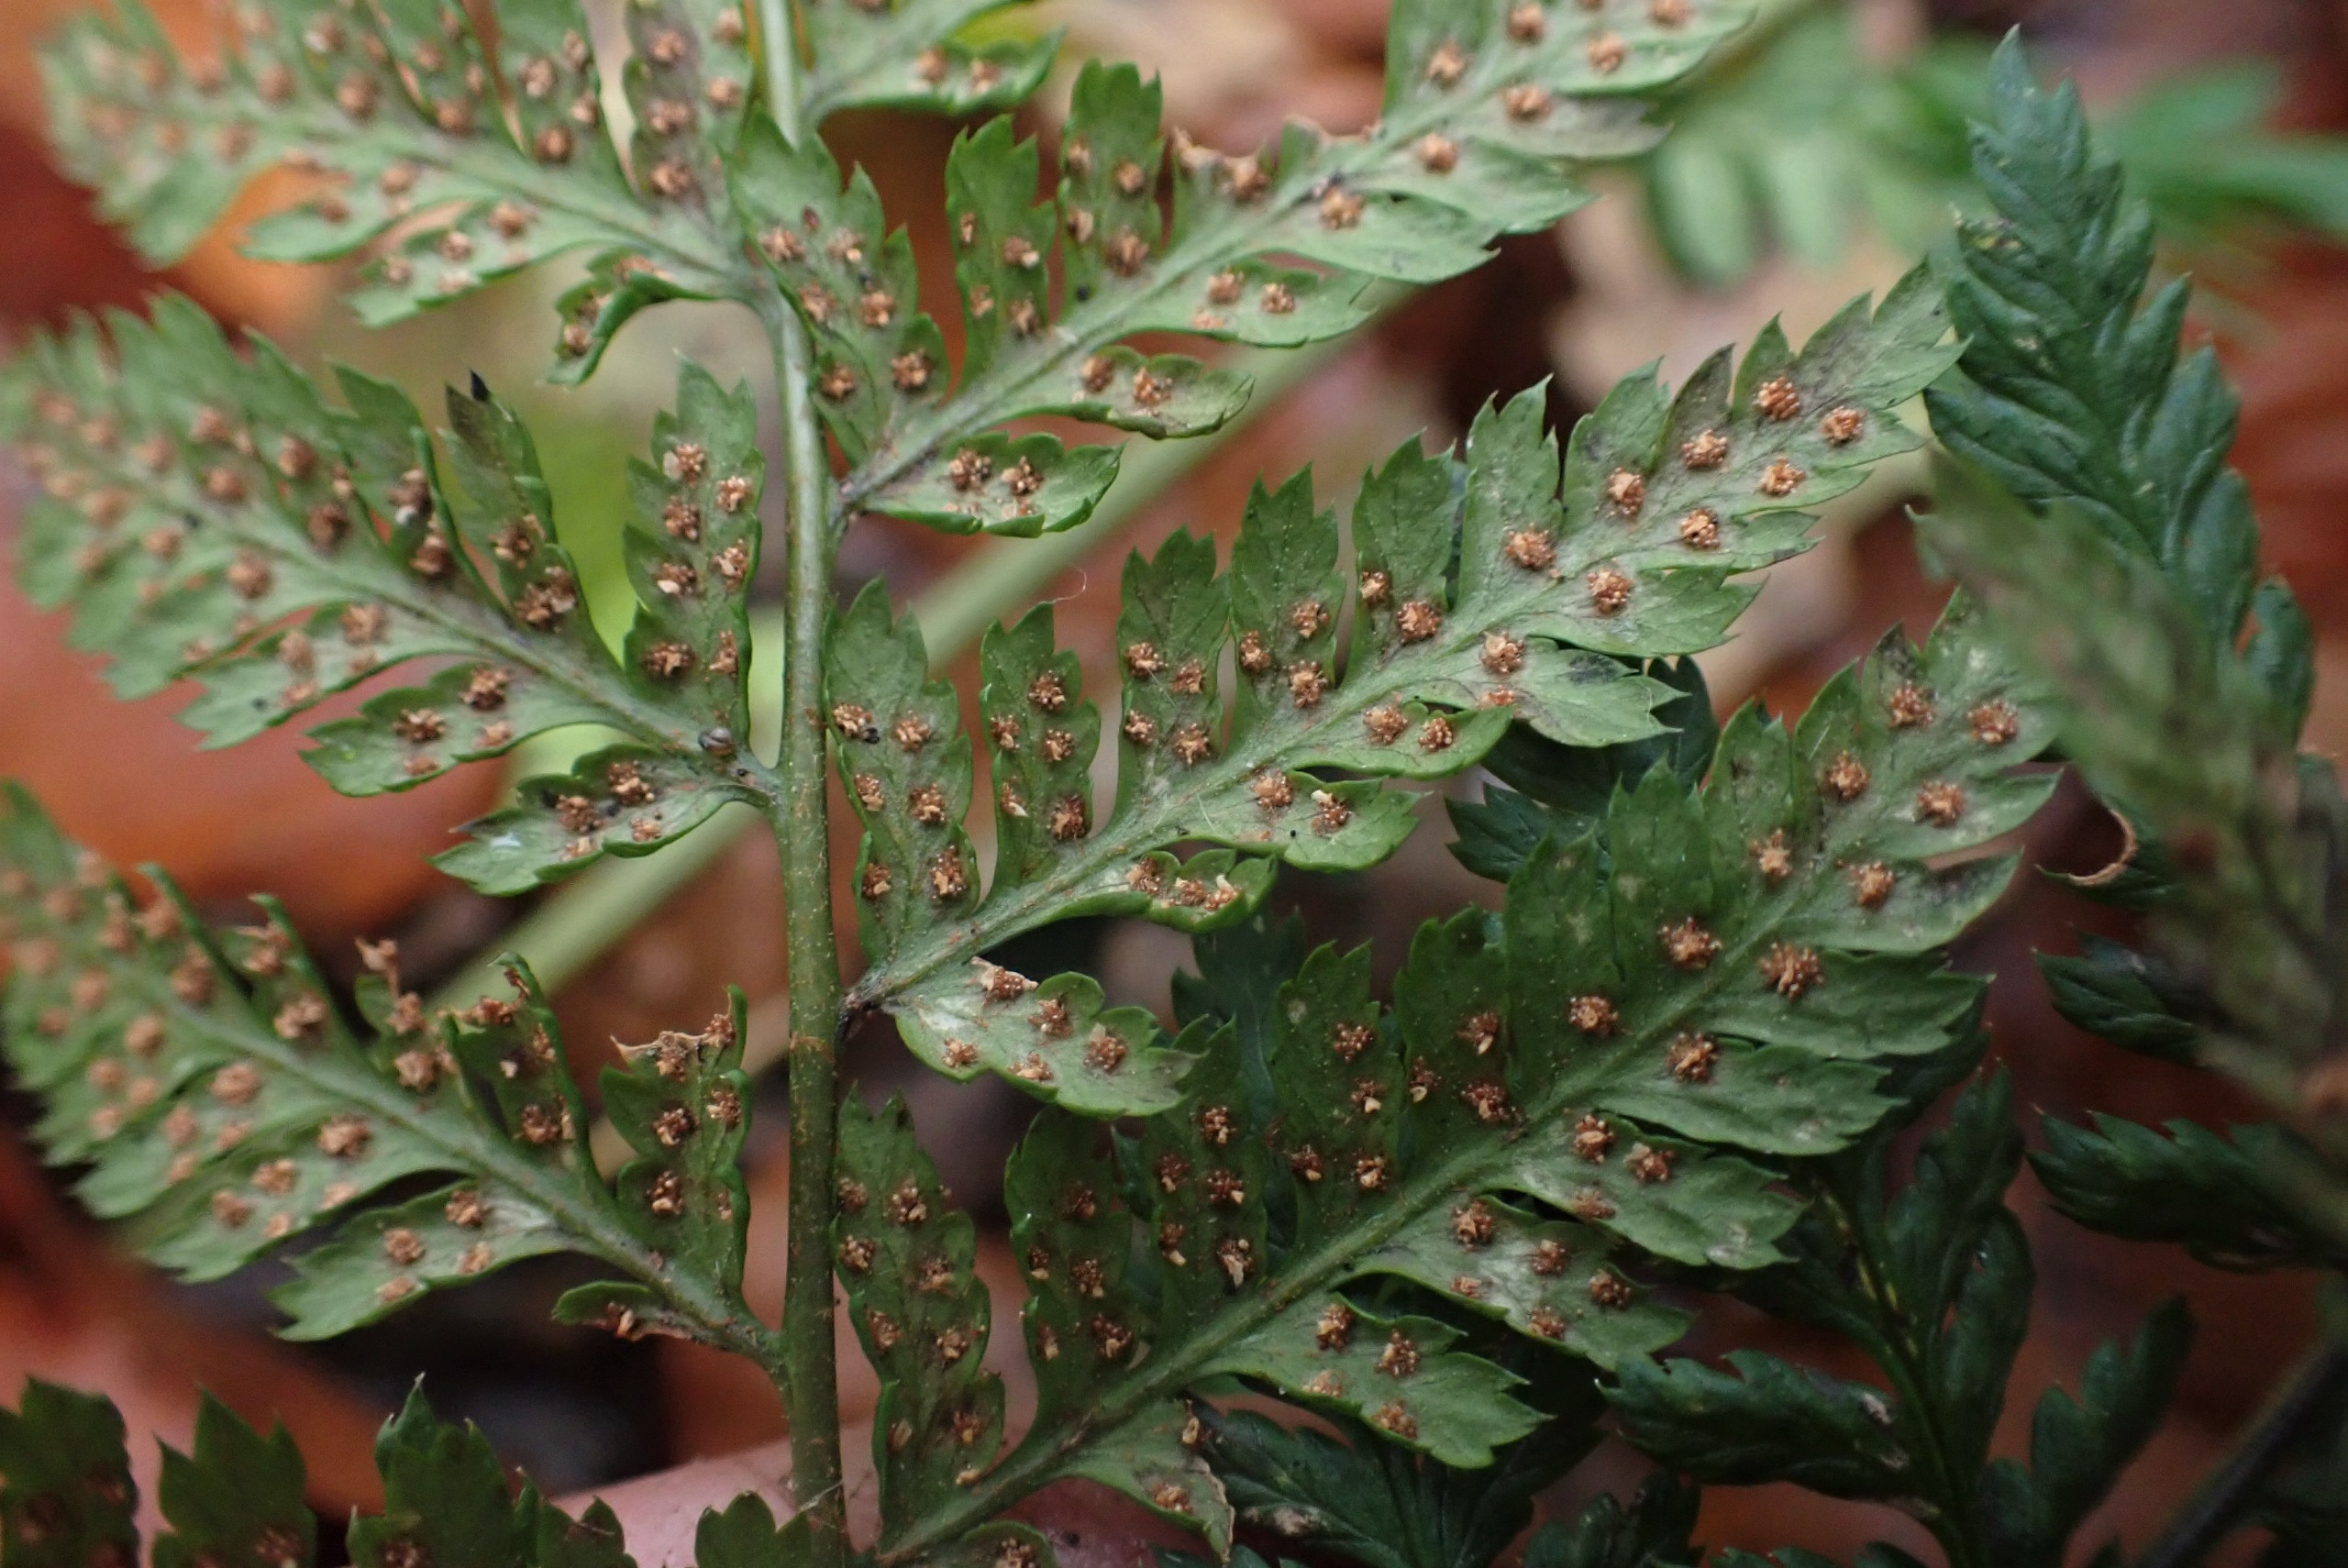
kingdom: Plantae
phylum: Tracheophyta
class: Polypodiopsida
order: Polypodiales
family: Dryopteridaceae
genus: Dryopteris
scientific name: Dryopteris dilatata
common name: Bredbladet mangeløv
